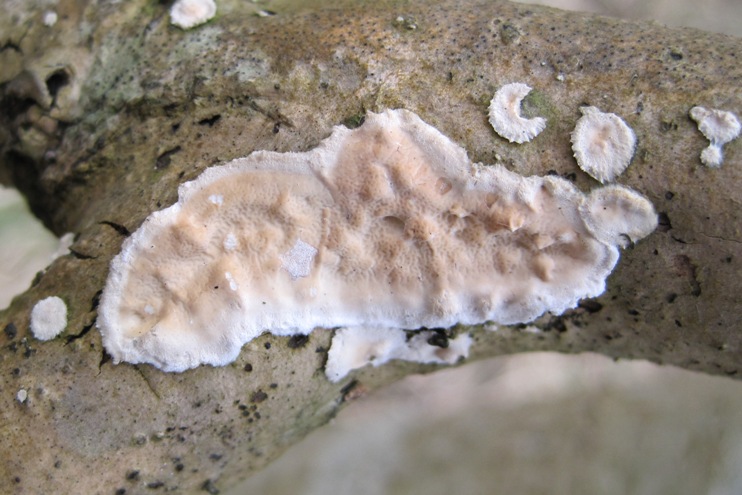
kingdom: Fungi
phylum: Basidiomycota
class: Agaricomycetes
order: Polyporales
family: Irpicaceae
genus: Byssomerulius
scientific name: Byssomerulius corium
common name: læder-åresvamp
